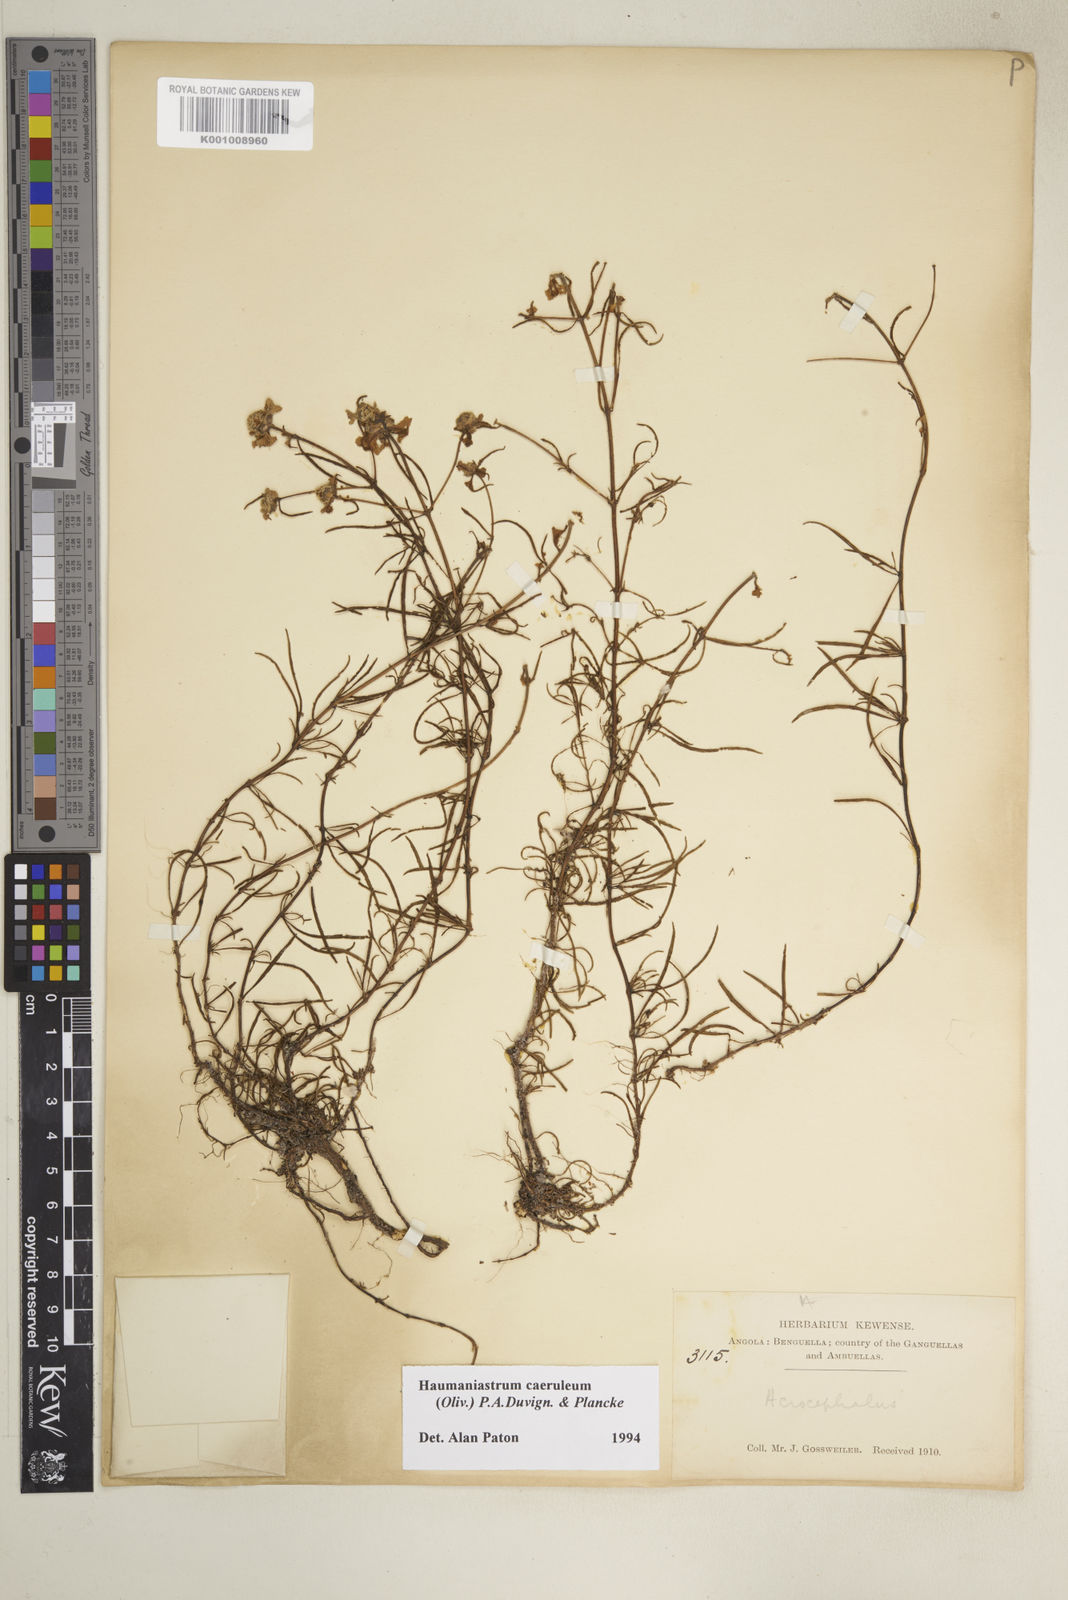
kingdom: Plantae
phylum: Tracheophyta
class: Magnoliopsida
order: Lamiales
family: Lamiaceae
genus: Haumaniastrum
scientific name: Haumaniastrum caeruleum
